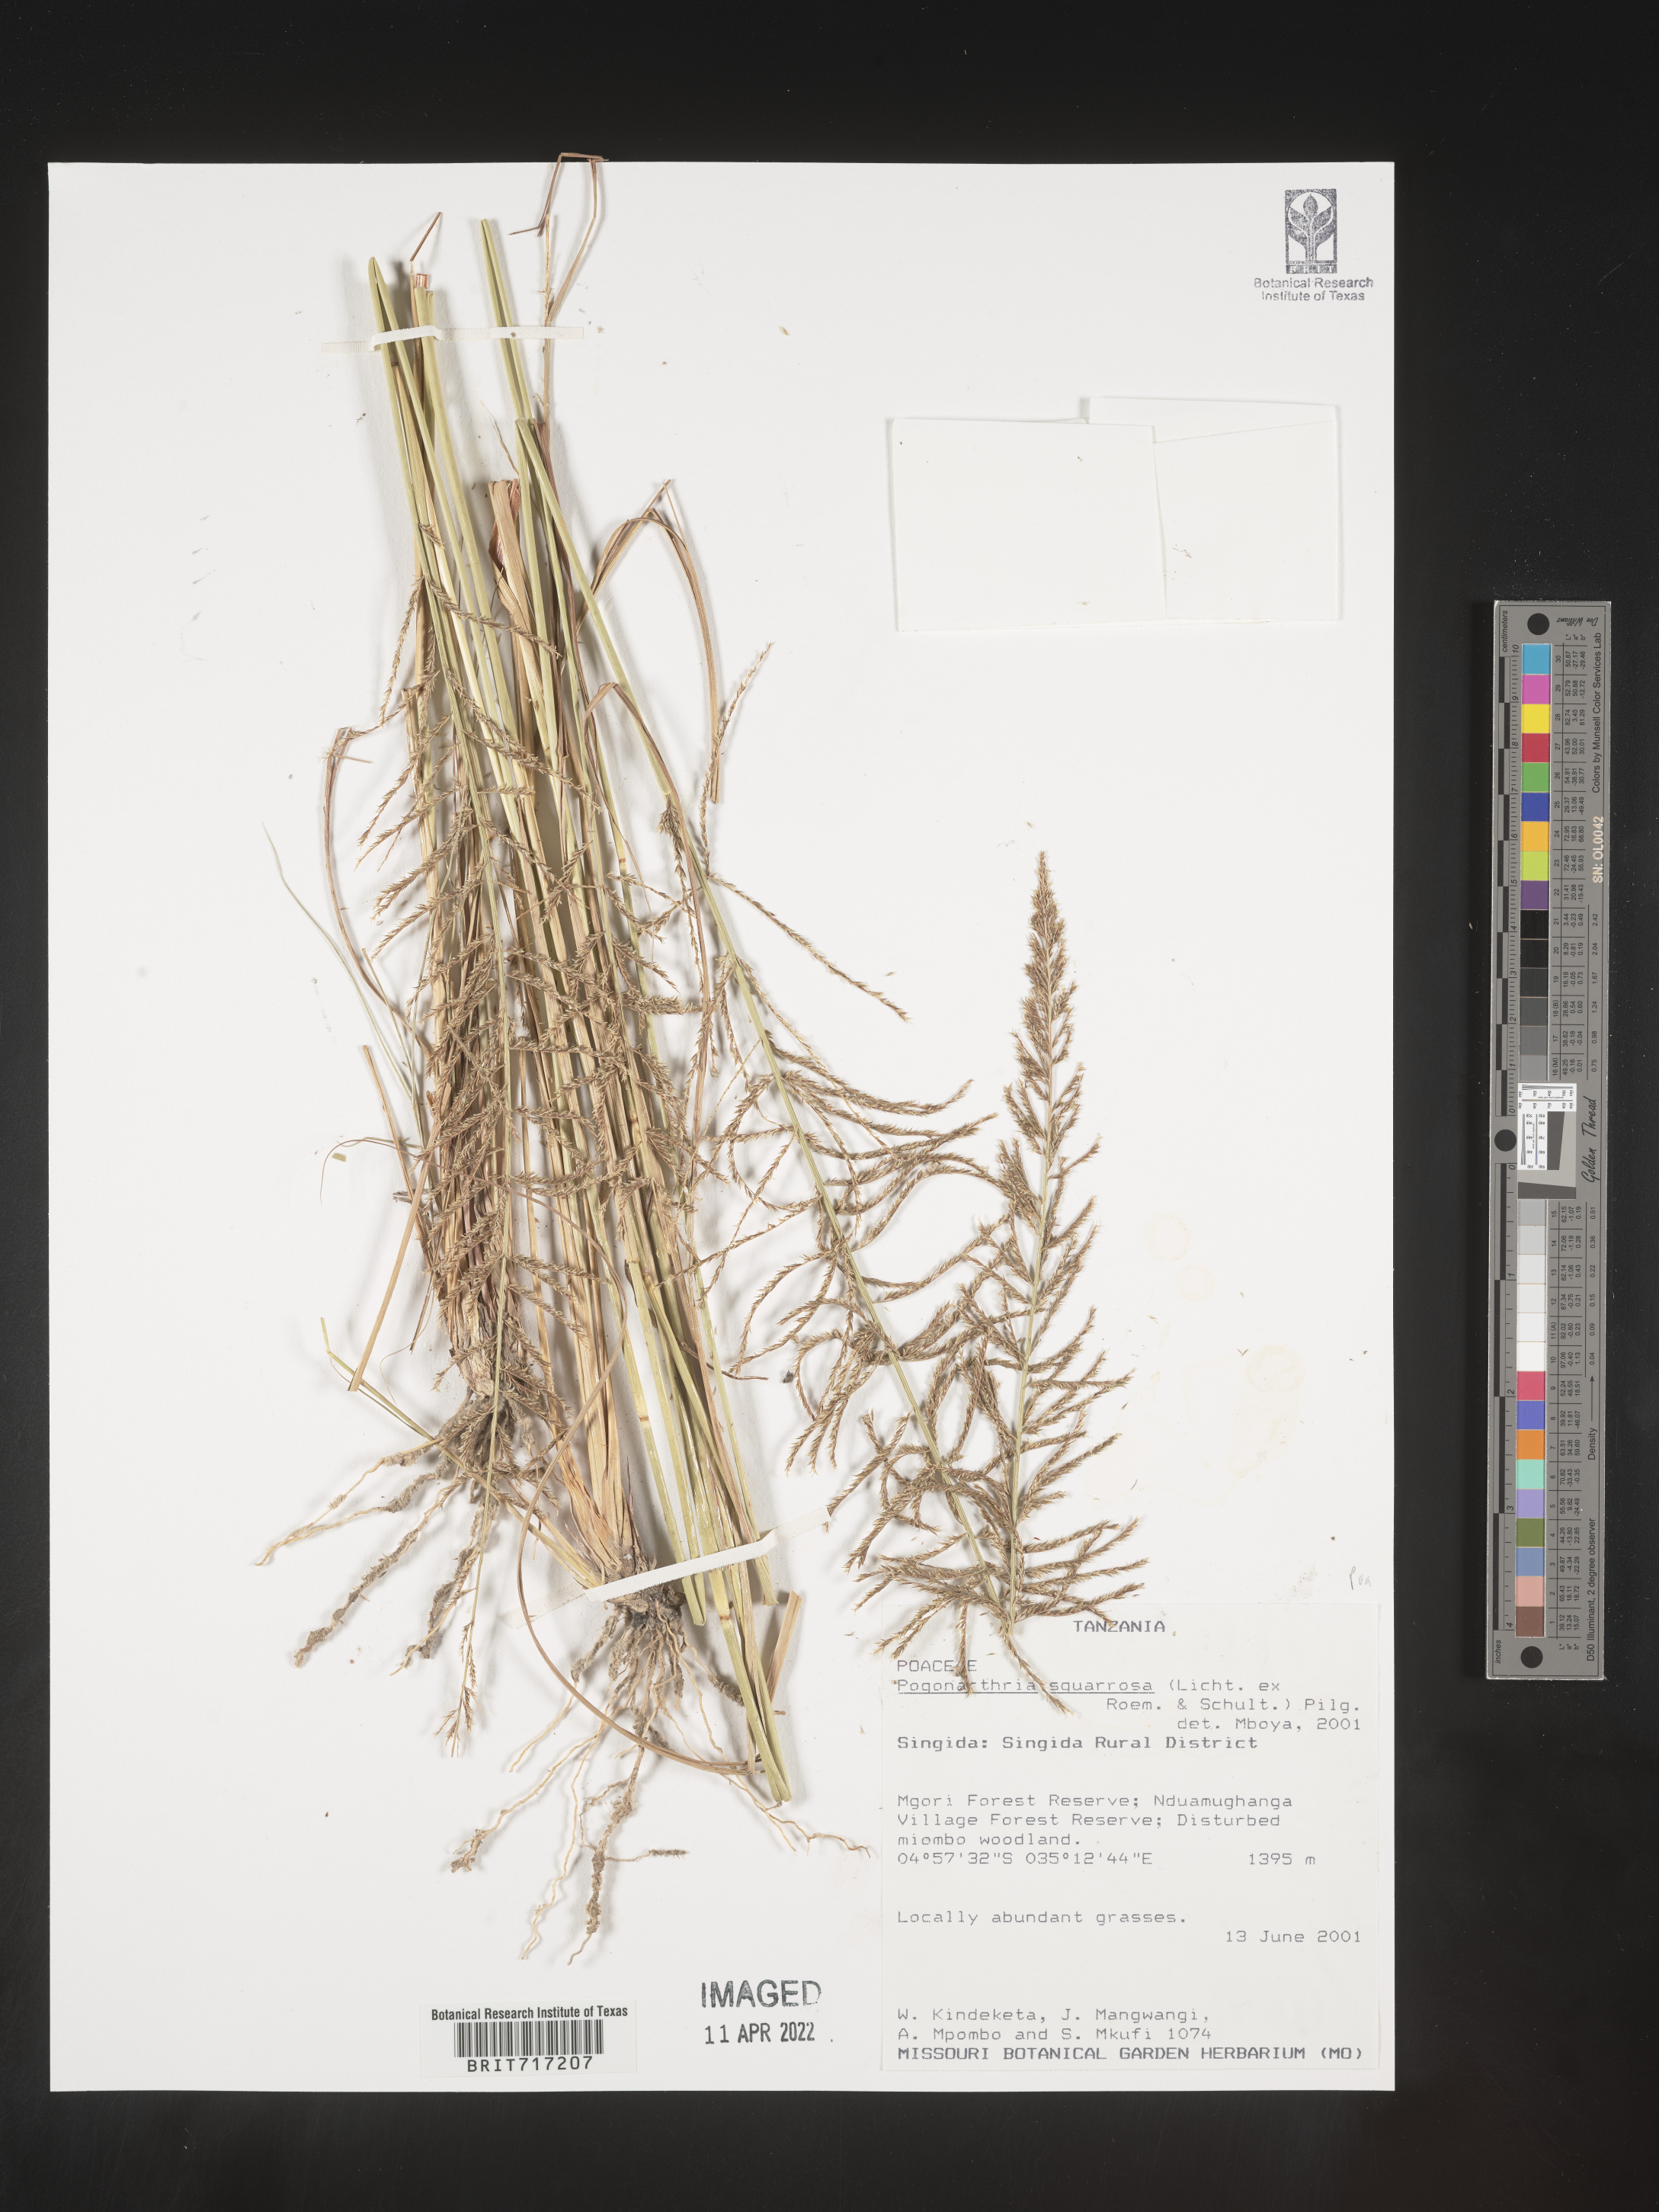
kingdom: Plantae
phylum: Tracheophyta
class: Liliopsida
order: Poales
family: Poaceae
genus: Pogonarthria
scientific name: Pogonarthria
